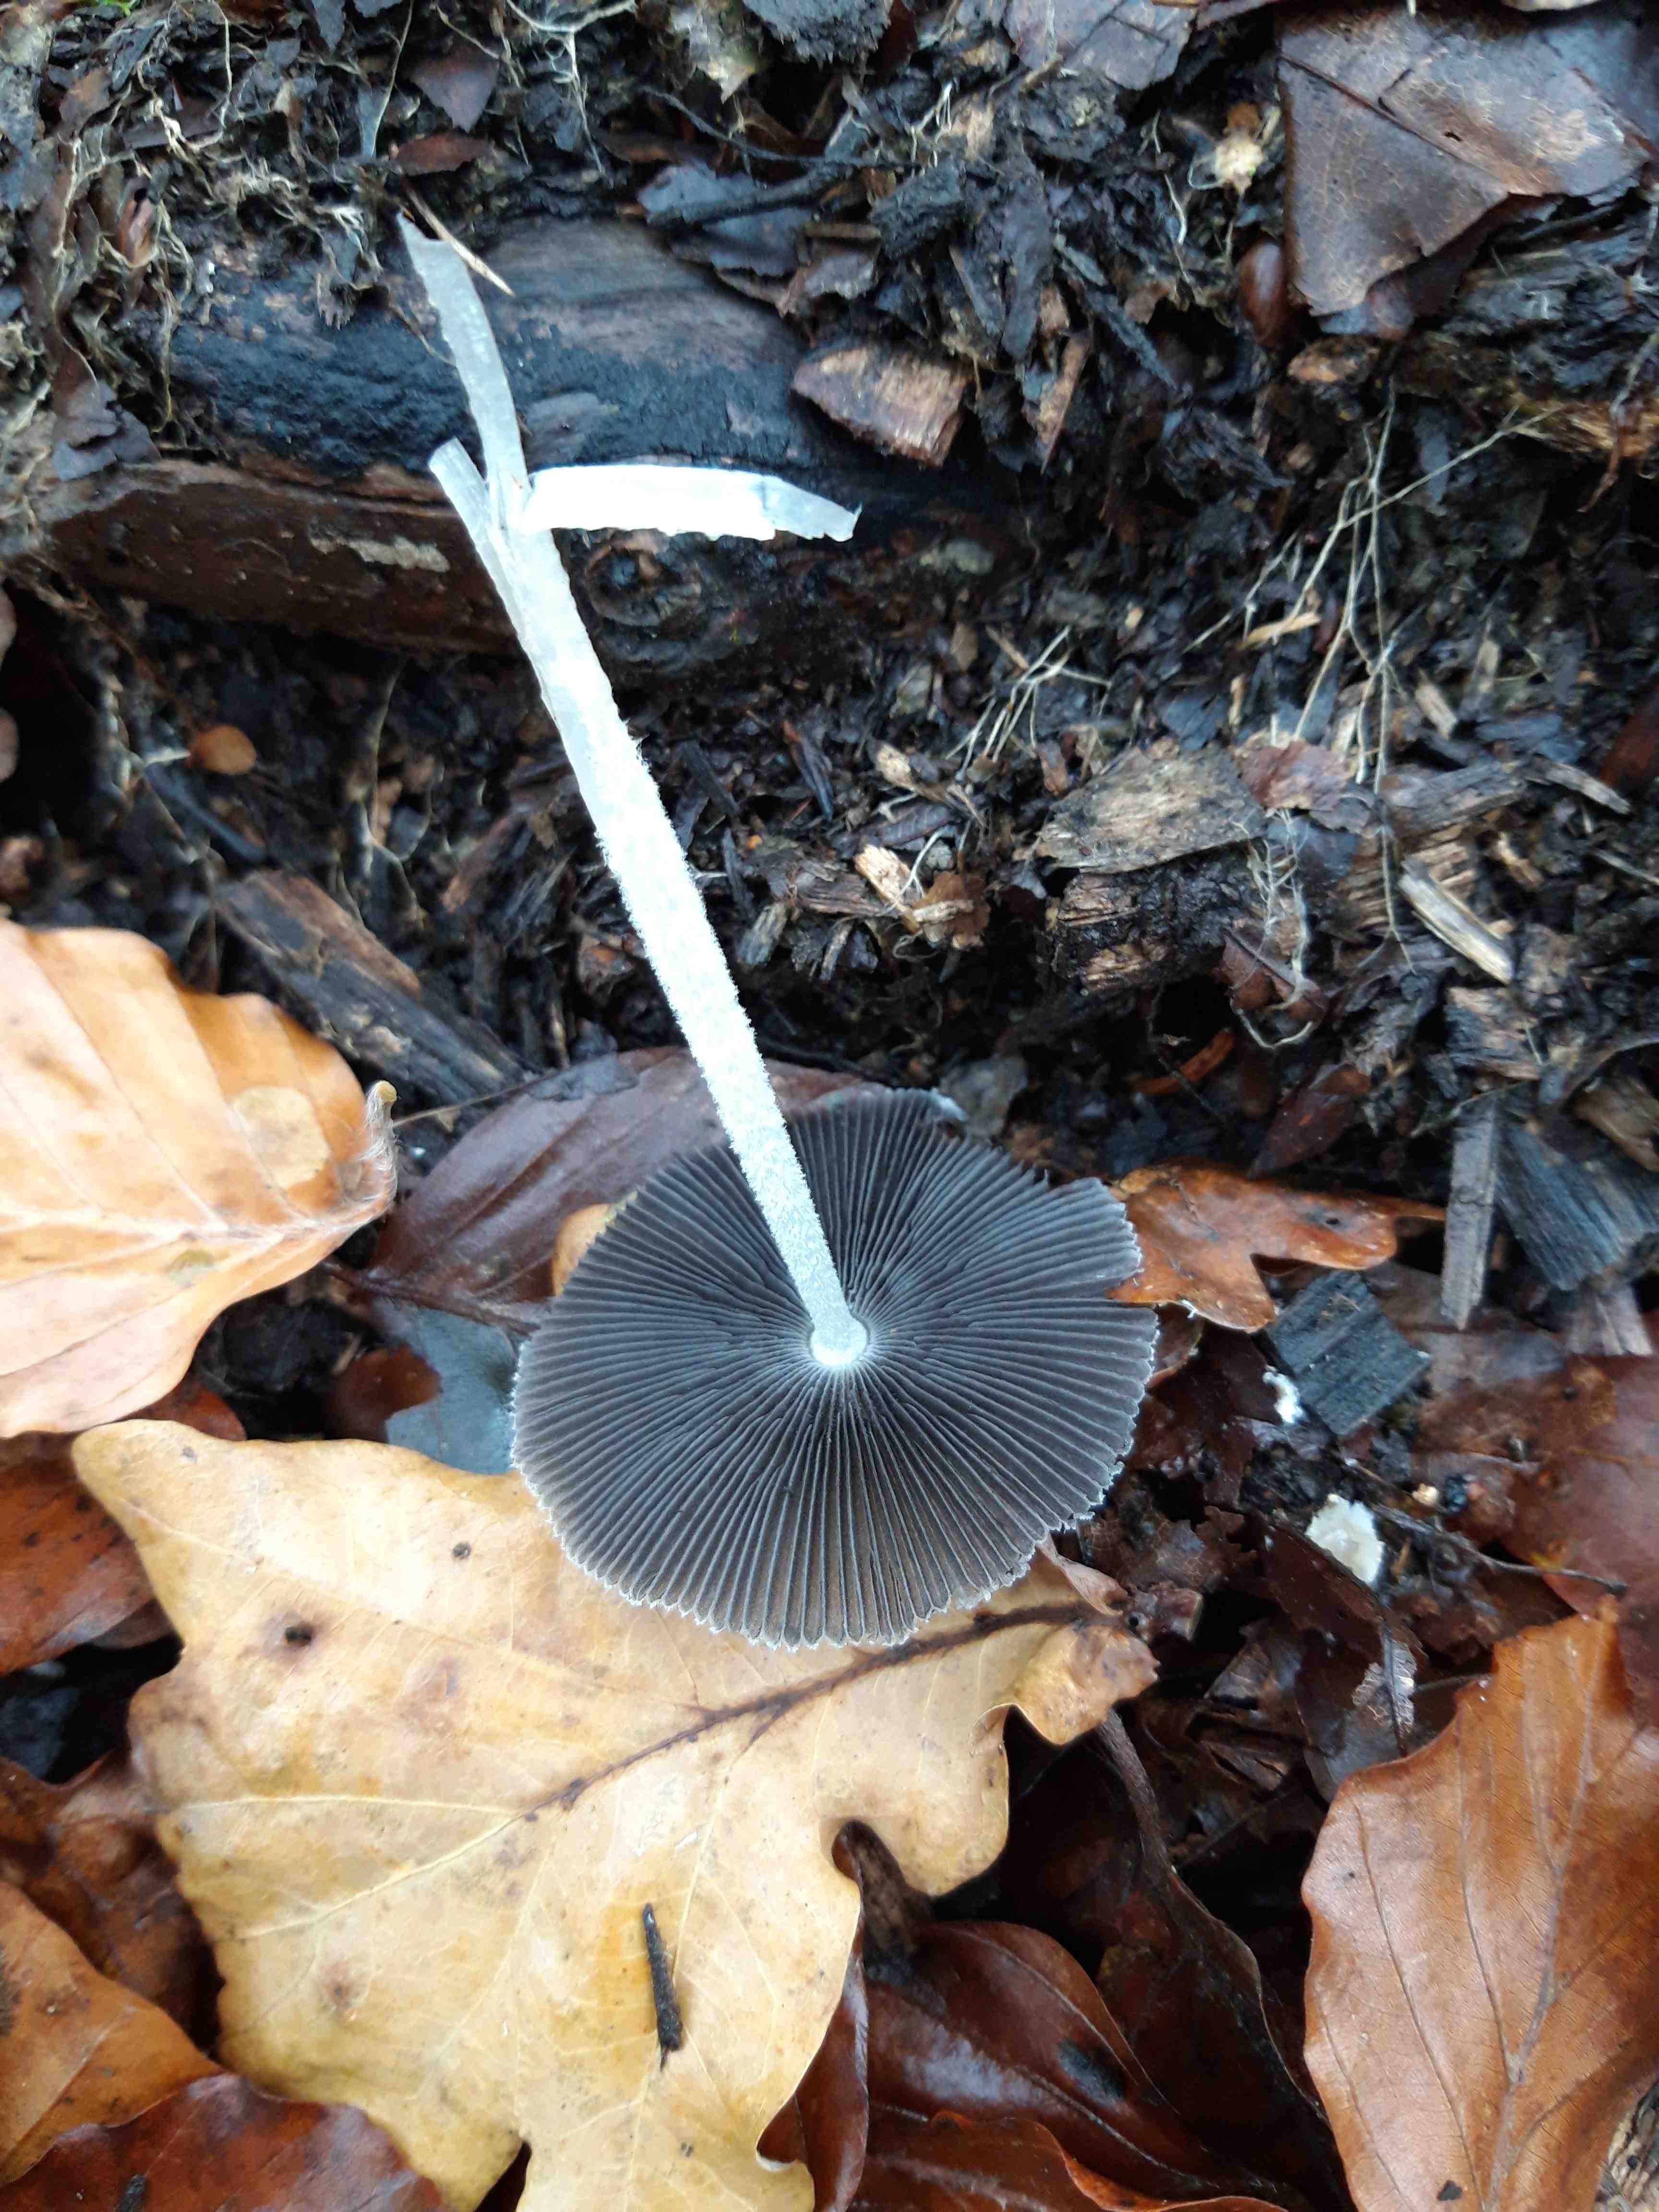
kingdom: Fungi
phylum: Basidiomycota
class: Agaricomycetes
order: Agaricales
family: Psathyrellaceae
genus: Coprinopsis
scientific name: Coprinopsis lagopus
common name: dunstokket blækhat
